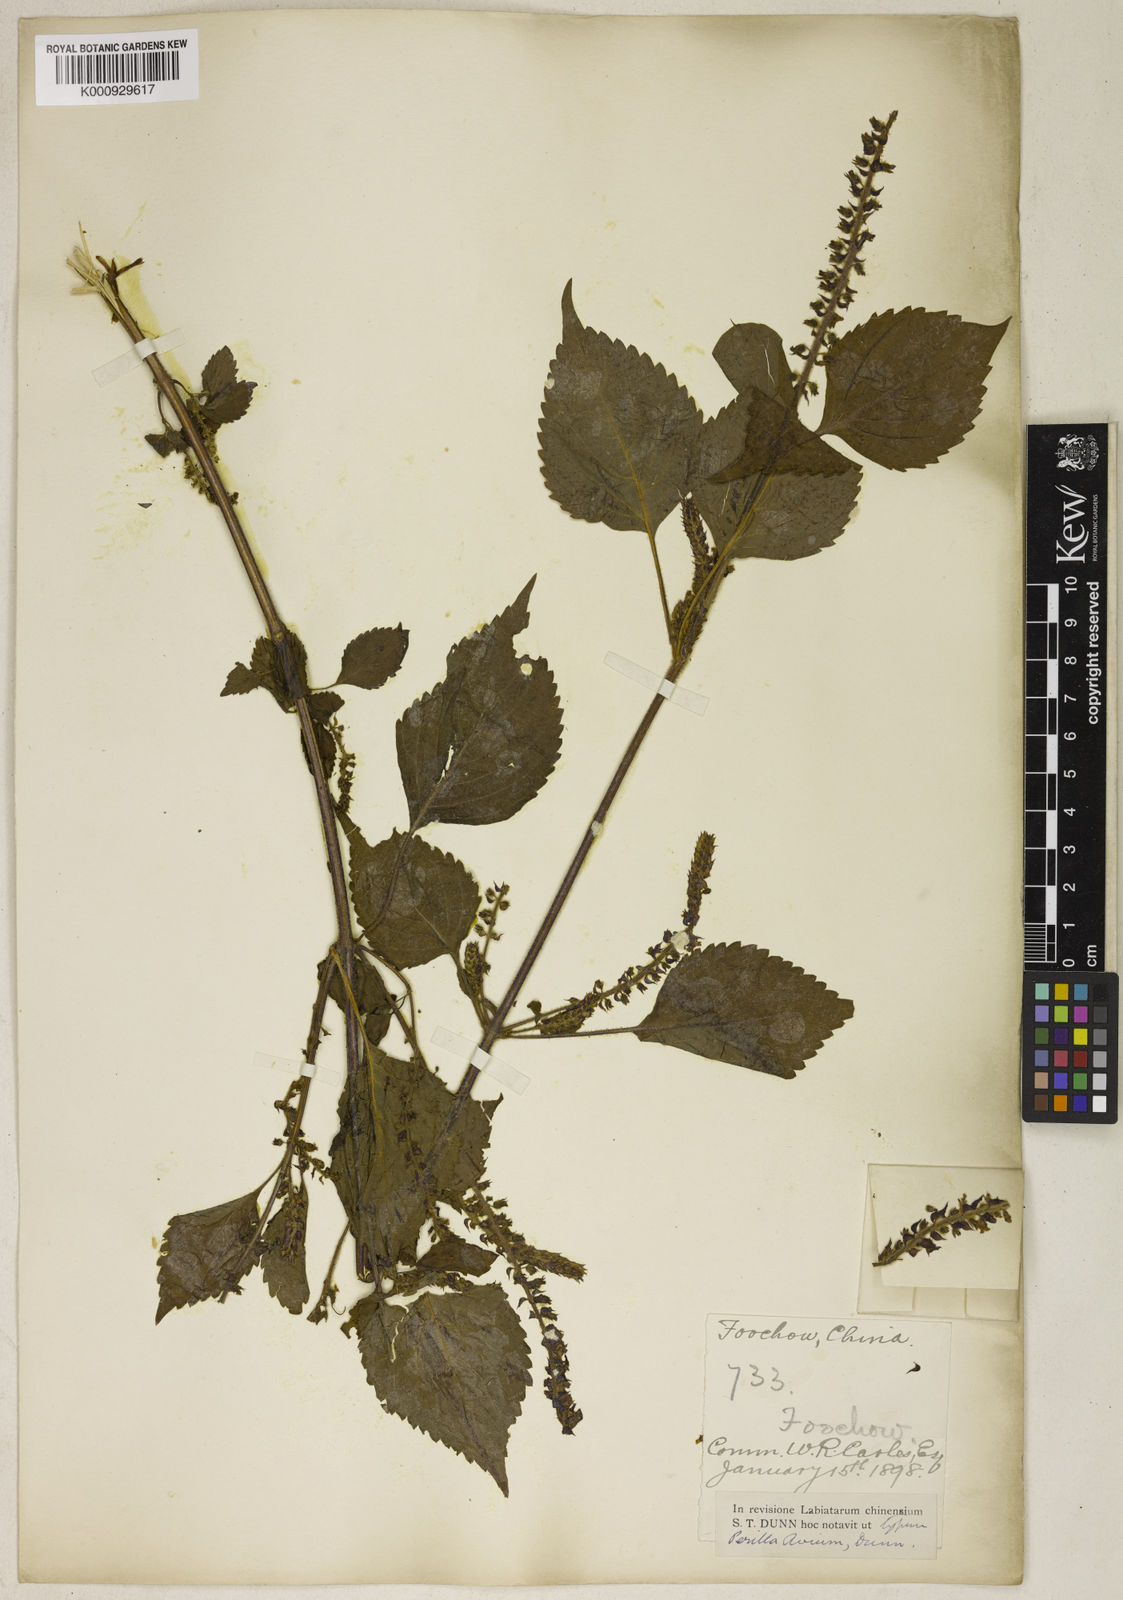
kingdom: Plantae
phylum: Tracheophyta
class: Magnoliopsida
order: Lamiales
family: Lamiaceae
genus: Perilla
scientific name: Perilla frutescens
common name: Perilla
